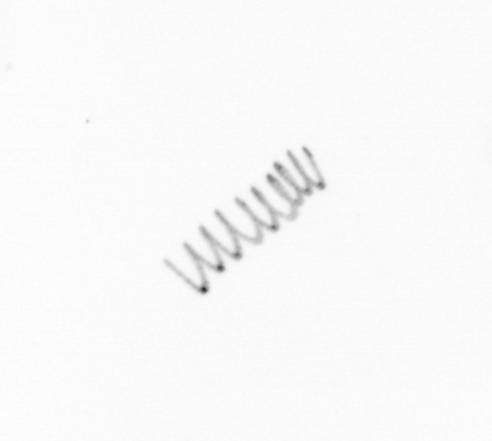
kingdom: Chromista
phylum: Ochrophyta
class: Bacillariophyceae
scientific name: Bacillariophyceae
